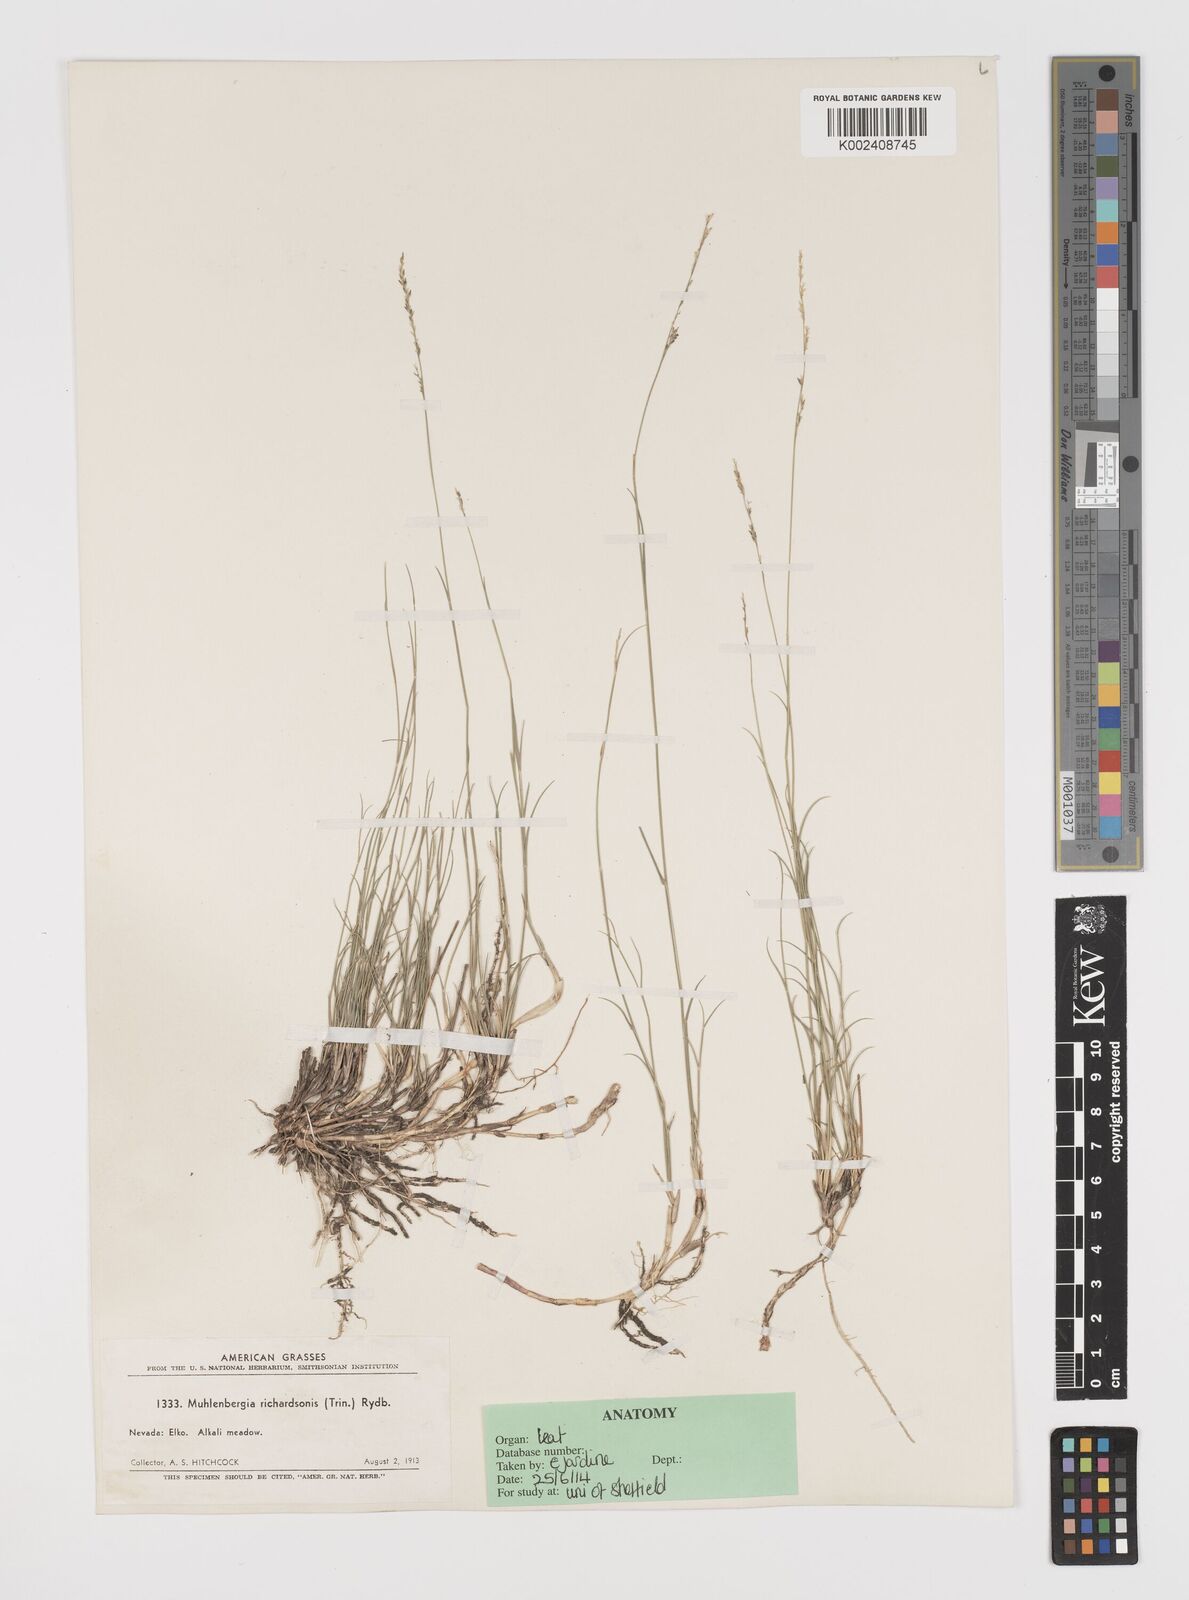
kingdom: Plantae
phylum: Tracheophyta
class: Liliopsida
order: Poales
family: Poaceae
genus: Muhlenbergia
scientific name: Muhlenbergia richardsonis
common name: Mat muhly
